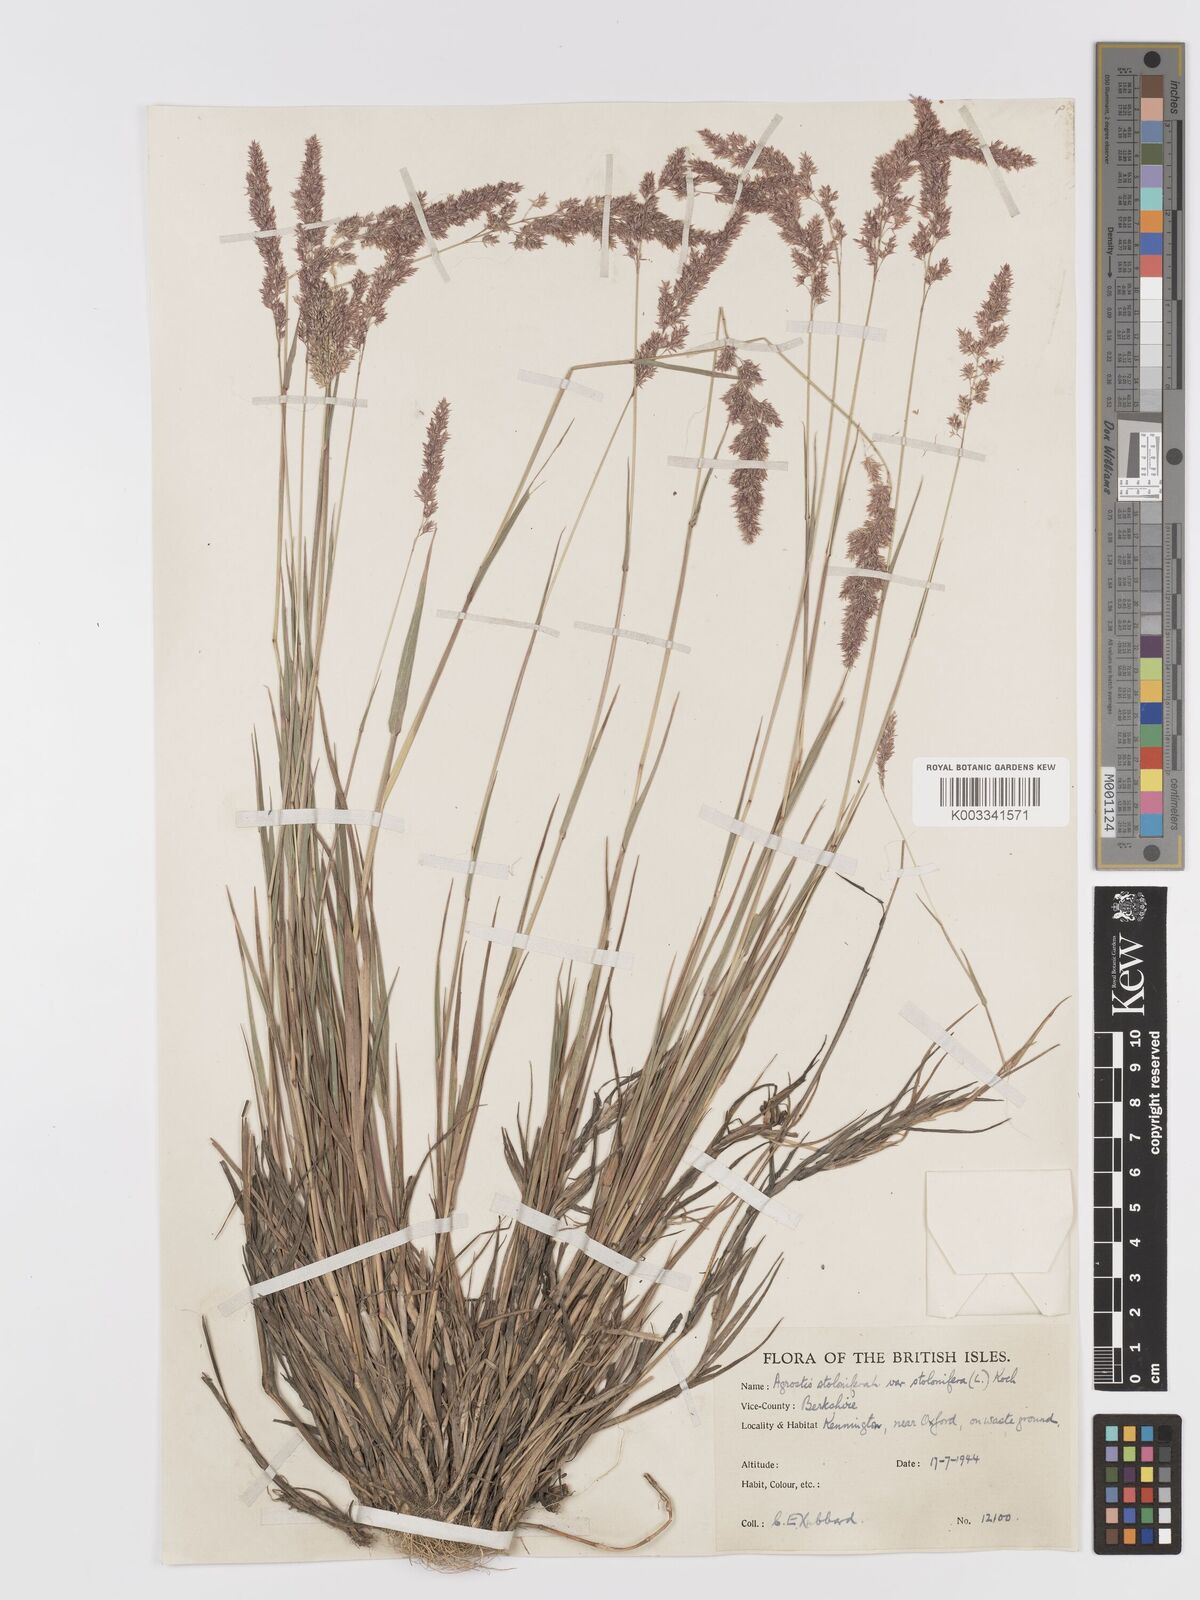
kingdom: Plantae
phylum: Tracheophyta
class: Liliopsida
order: Poales
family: Poaceae
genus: Agrostis
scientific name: Agrostis stolonifera
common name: Creeping bentgrass
